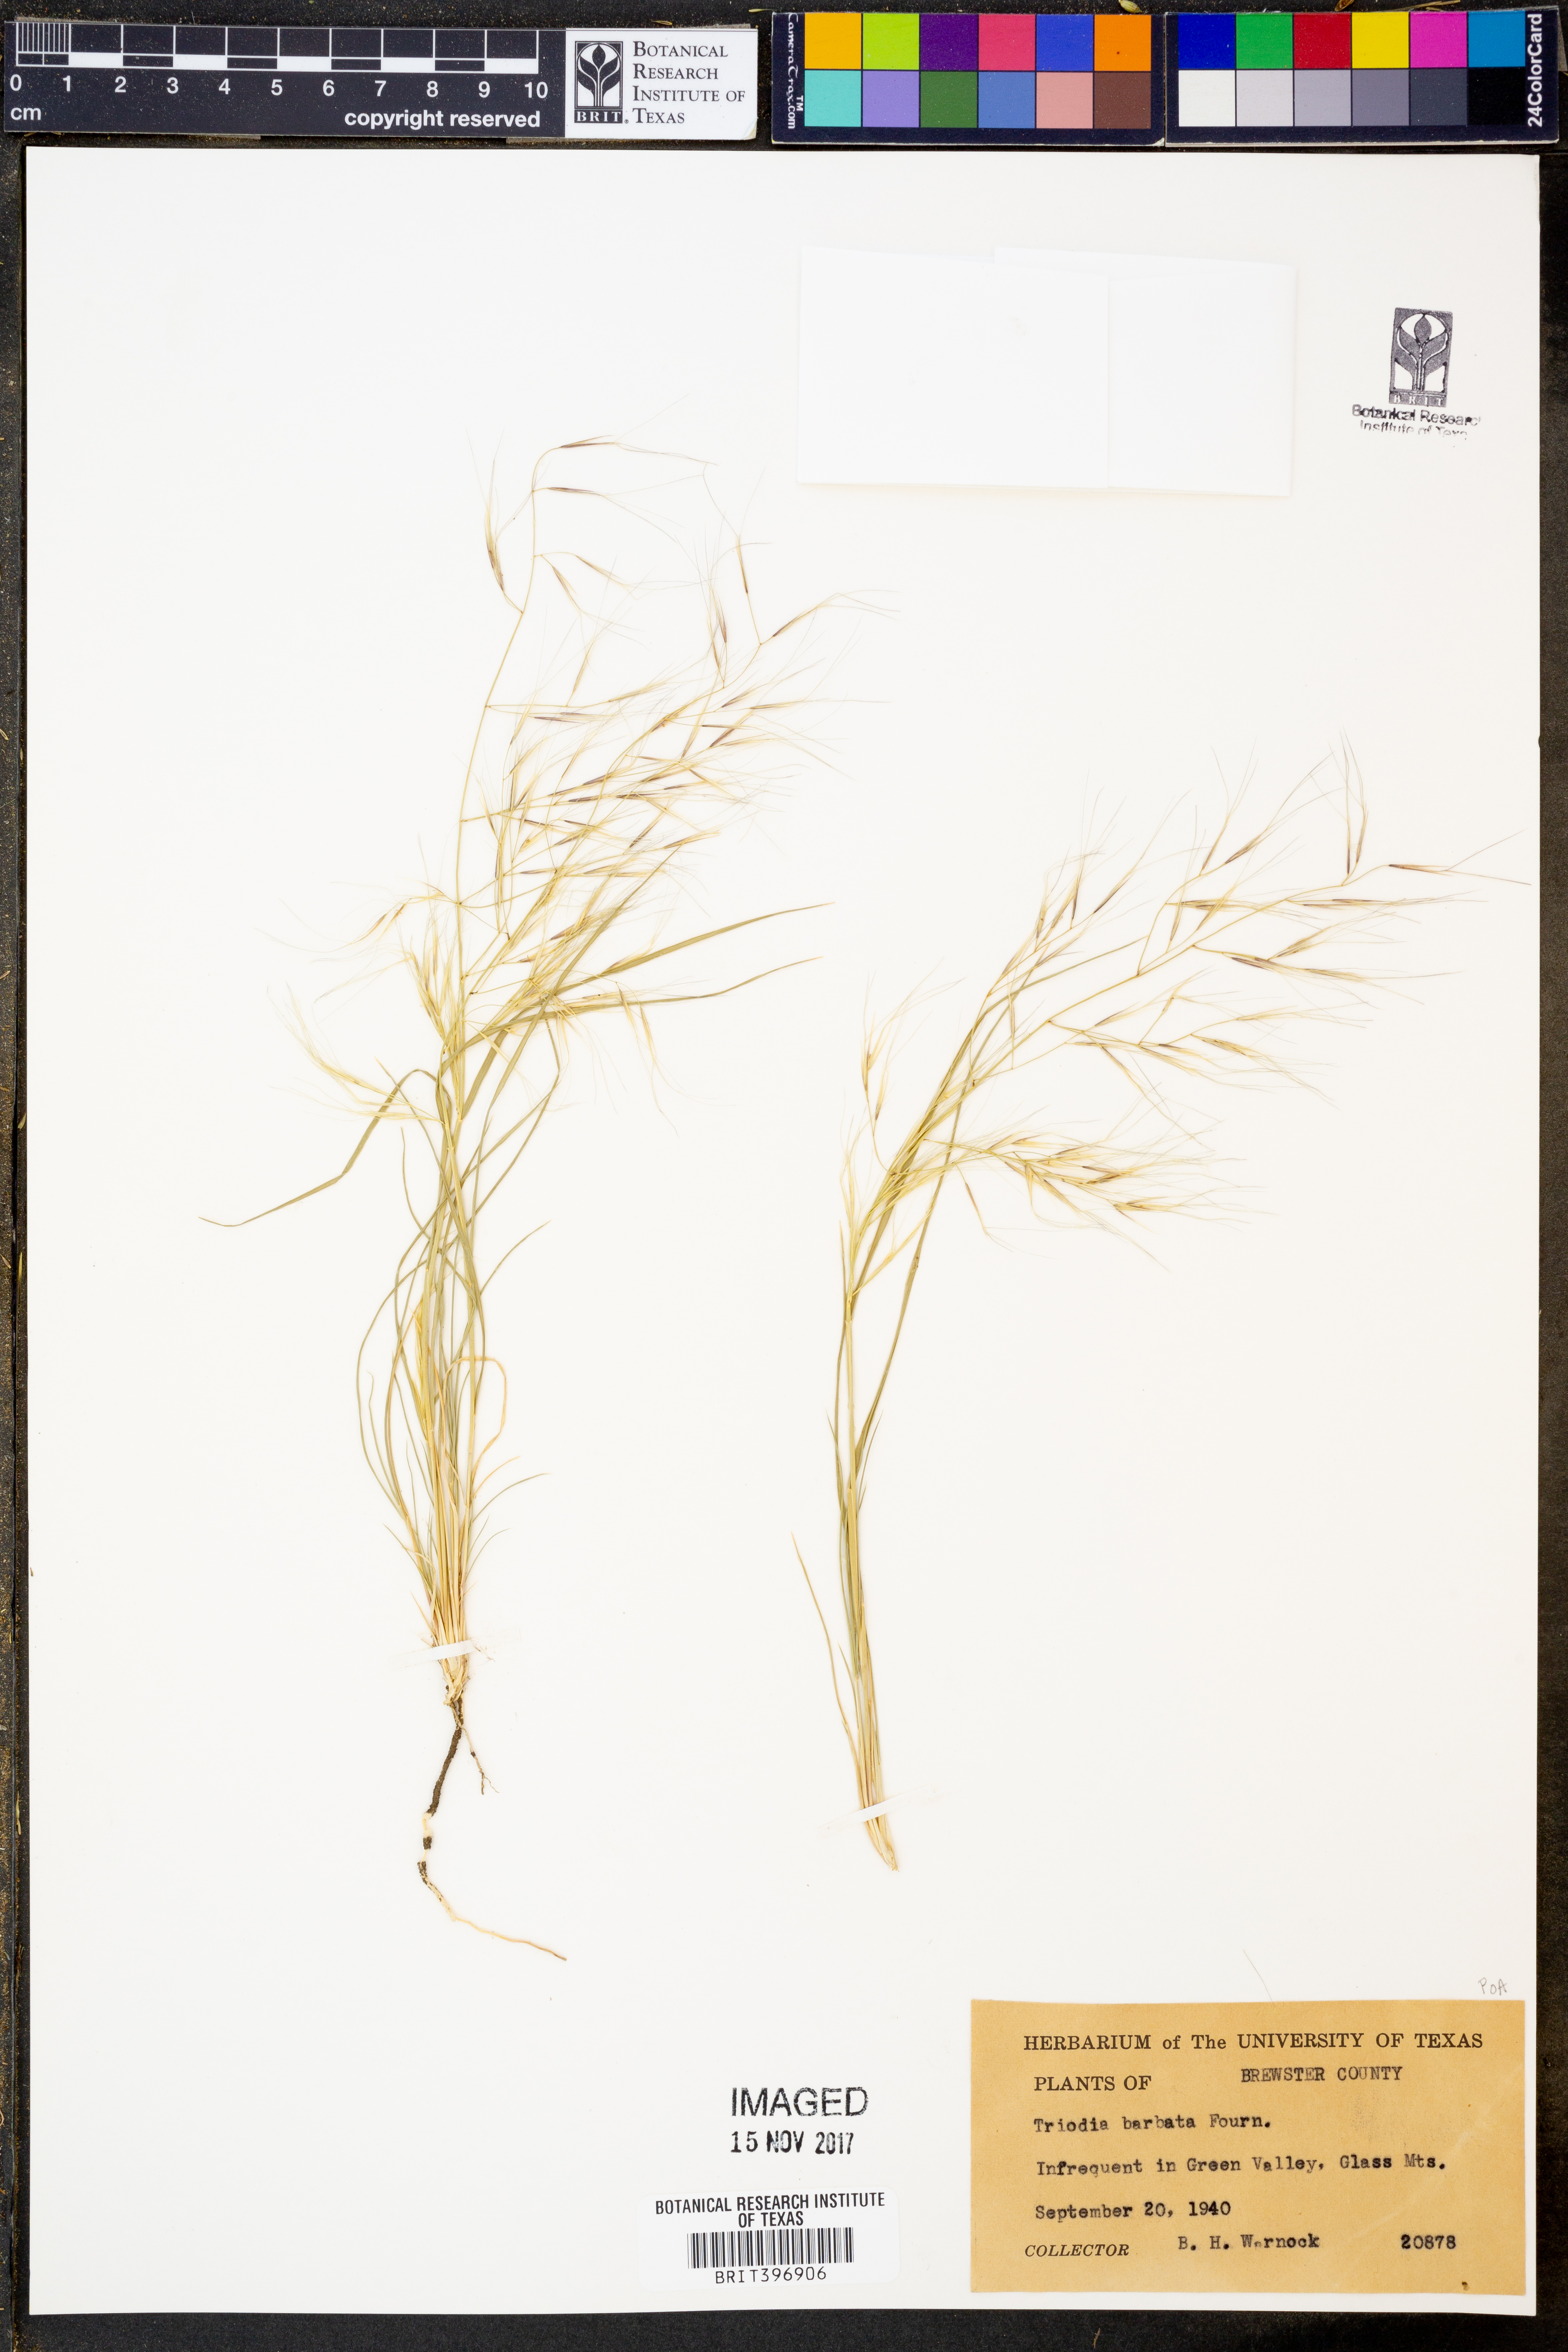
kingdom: Plantae
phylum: Tracheophyta
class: Liliopsida
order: Poales
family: Poaceae
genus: Triodia
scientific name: Triodia barbata
